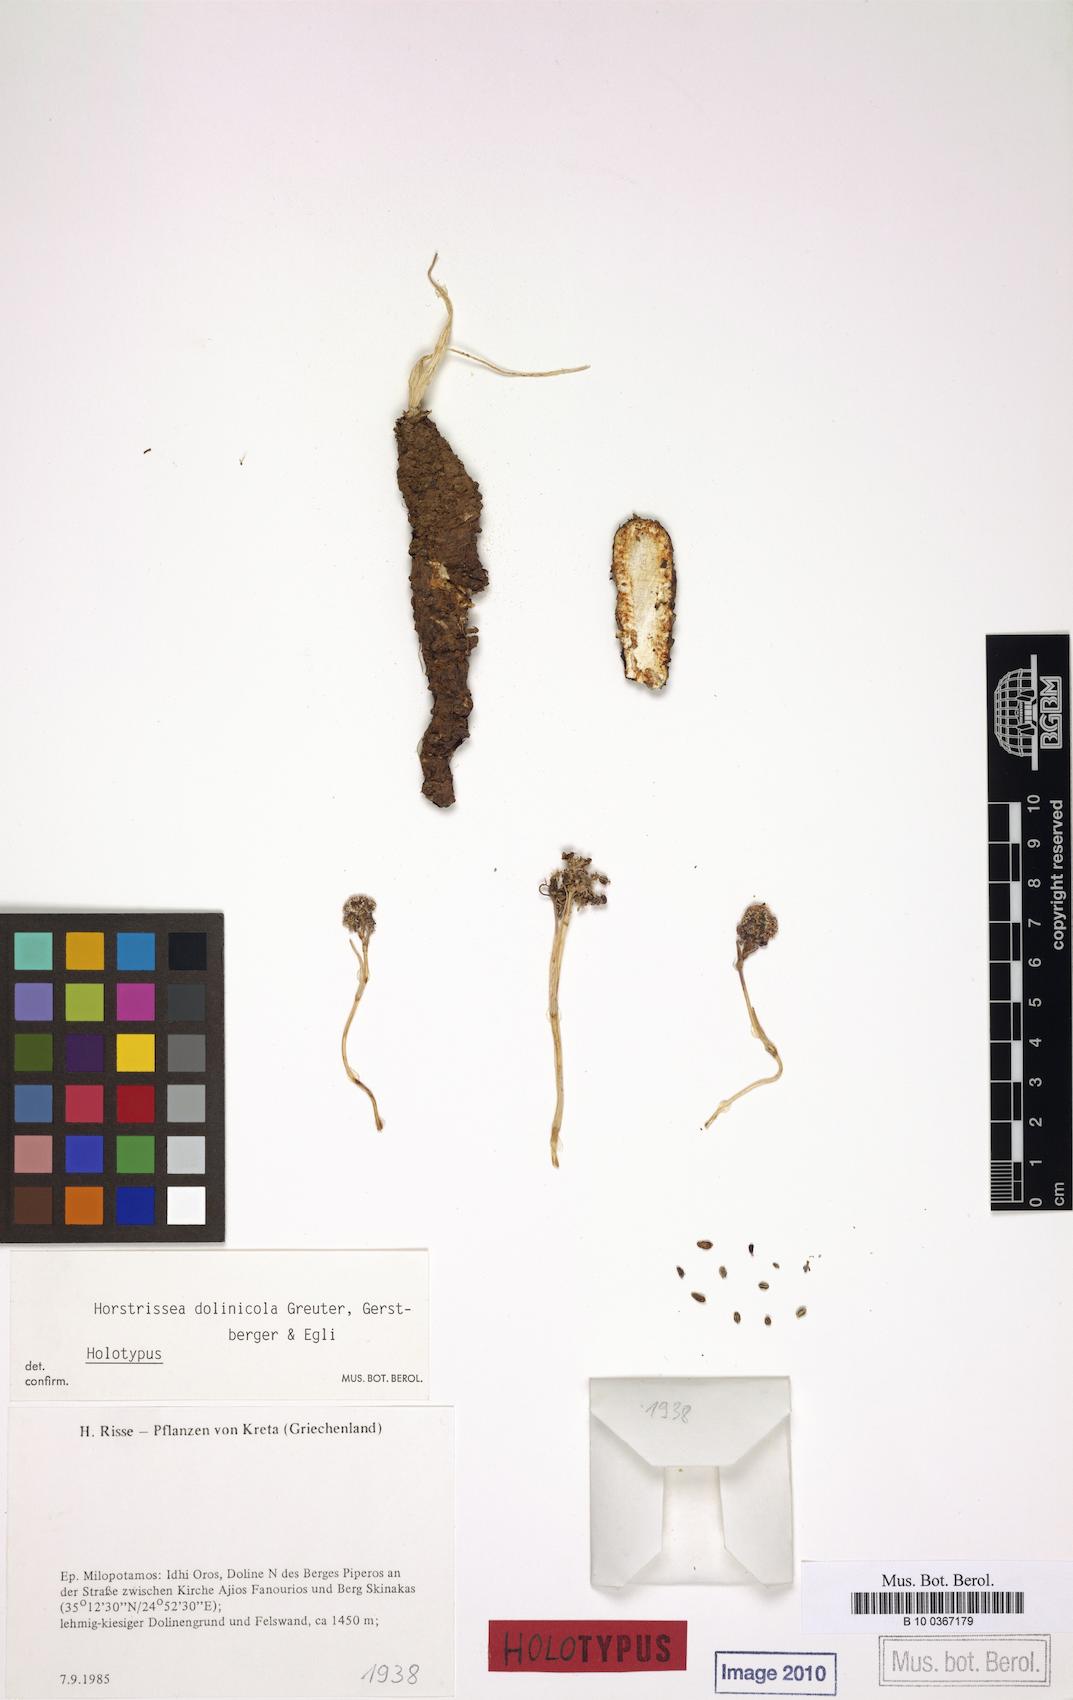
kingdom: Plantae
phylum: Tracheophyta
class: Magnoliopsida
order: Apiales
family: Apiaceae
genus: Horstrissea
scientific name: Horstrissea dolinicola
